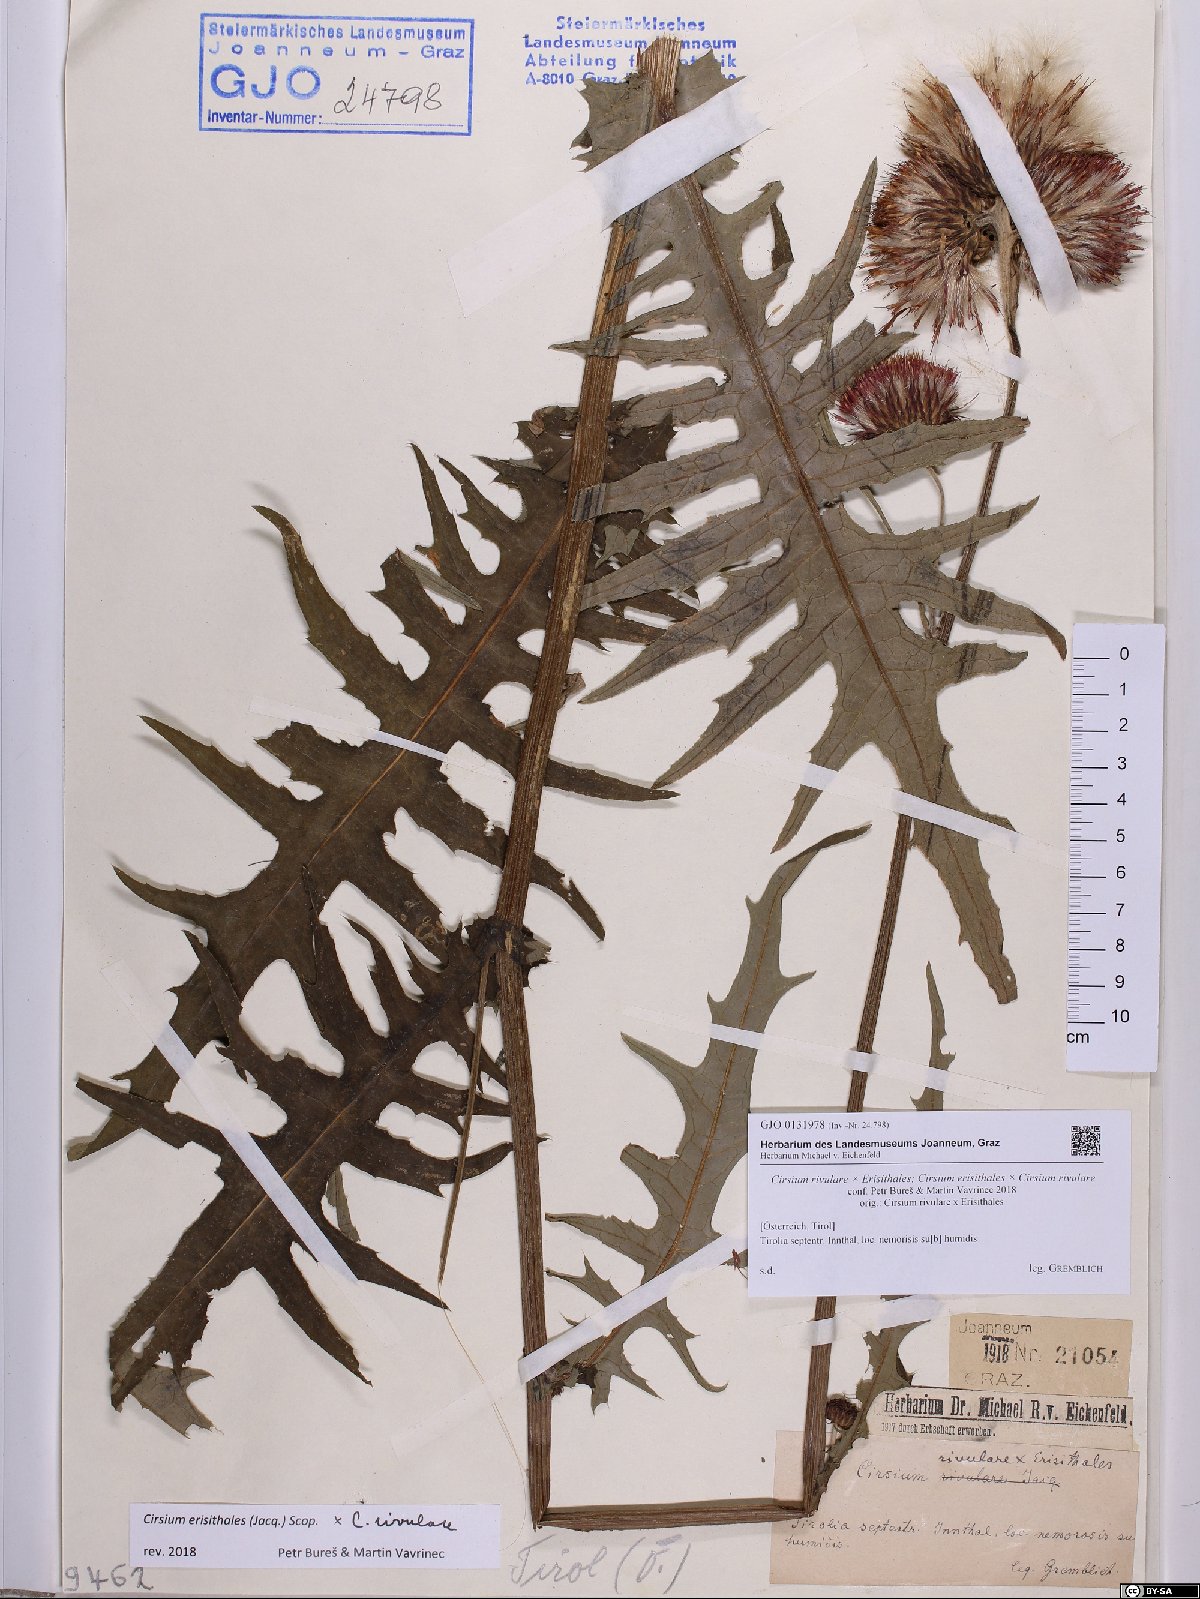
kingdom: Plantae
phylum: Tracheophyta
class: Magnoliopsida
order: Asterales
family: Asteraceae
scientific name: Asteraceae
